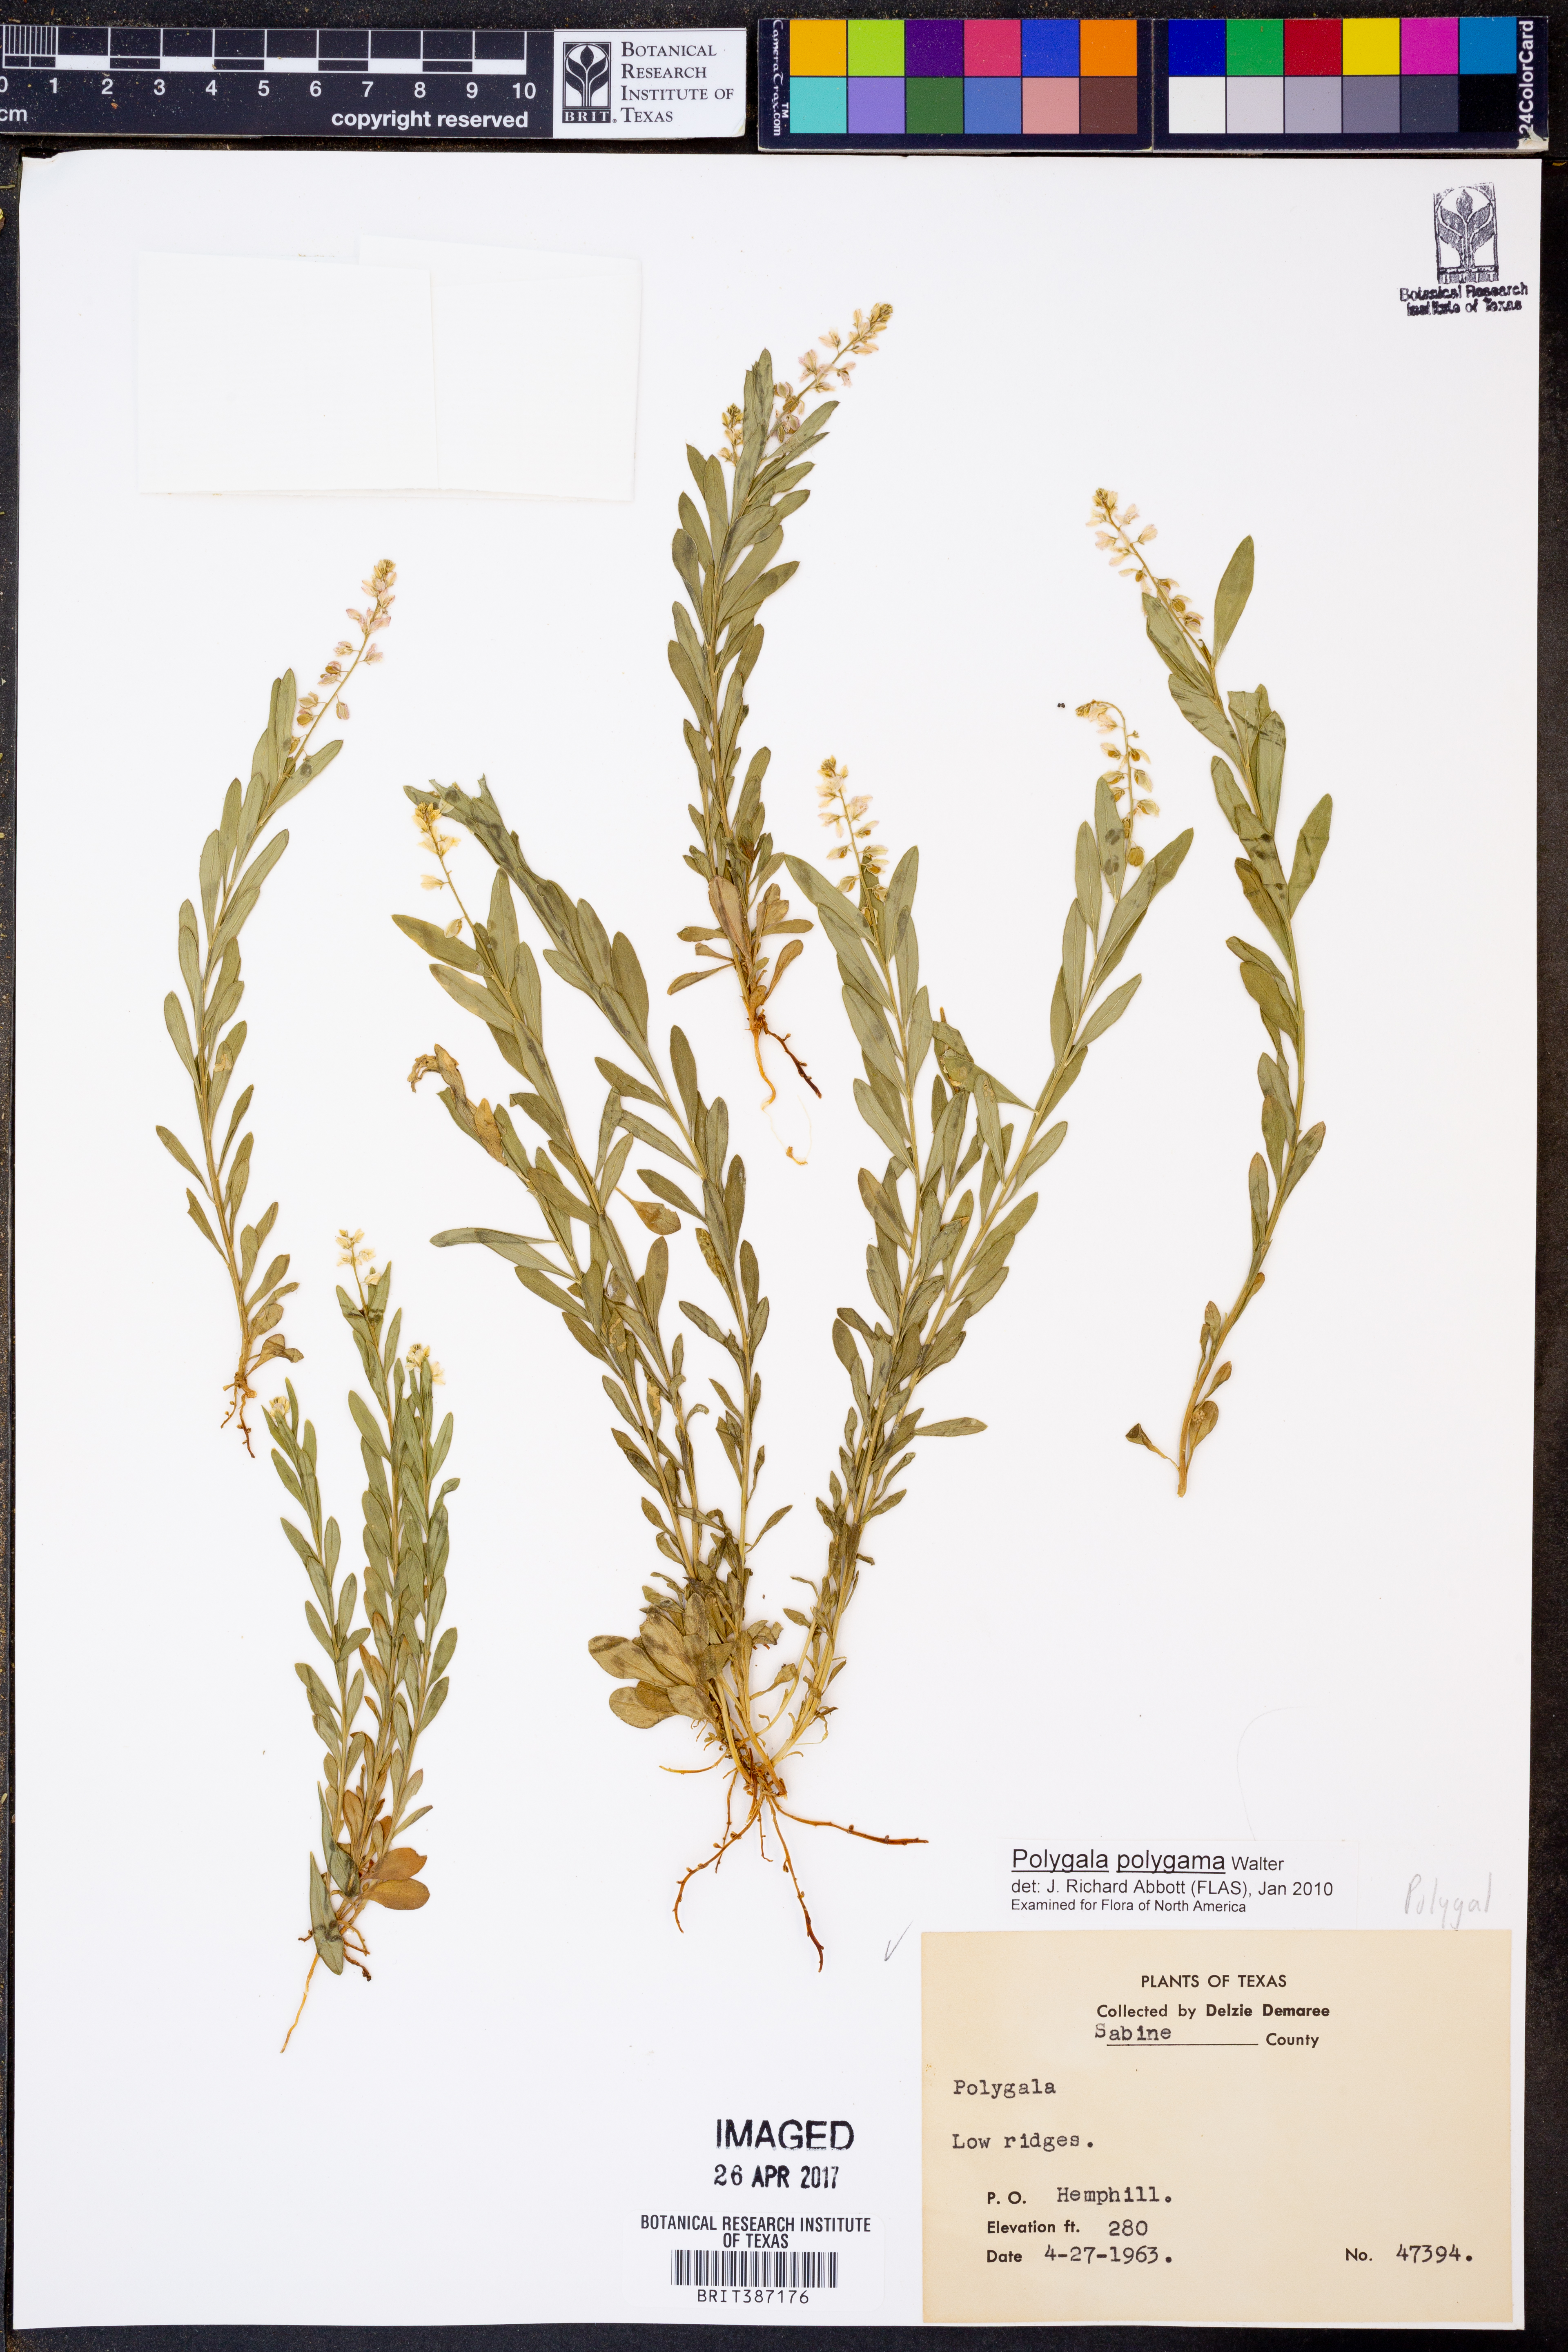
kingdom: Plantae
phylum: Tracheophyta
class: Magnoliopsida
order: Fabales
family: Polygalaceae
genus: Polygala
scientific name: Polygala polygama
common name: Bitter milkwort
